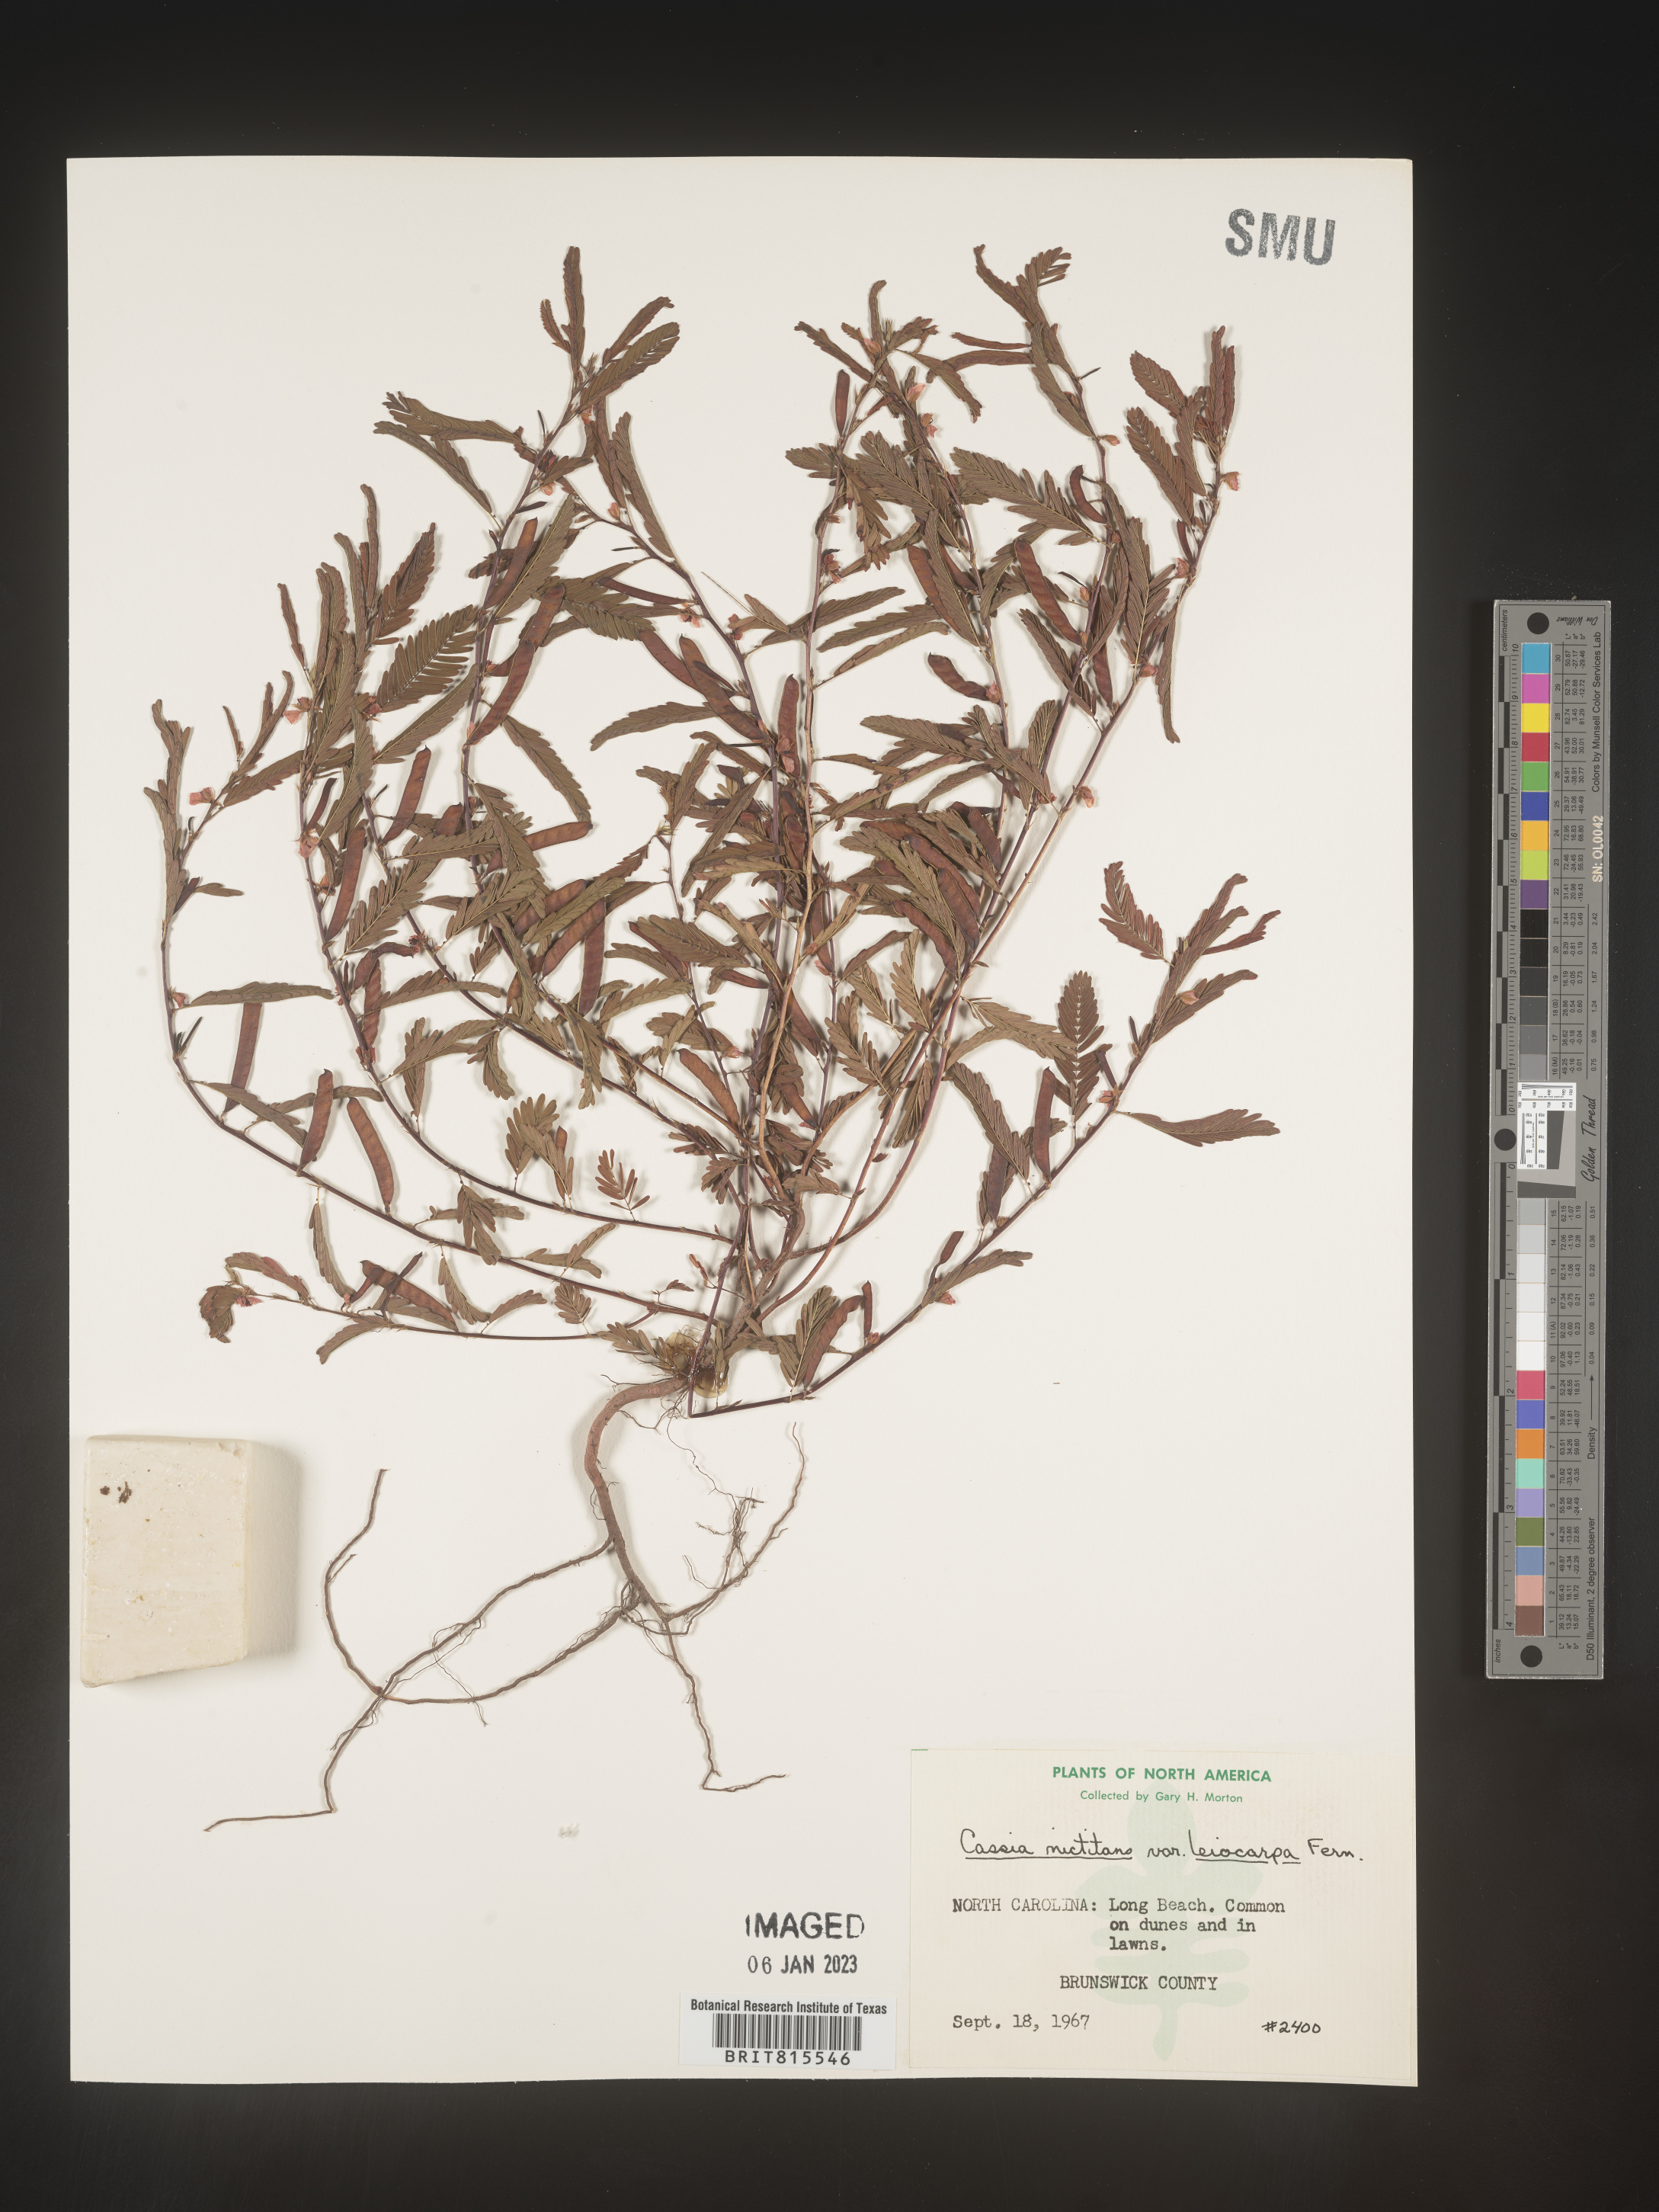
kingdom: Plantae
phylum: Tracheophyta
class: Magnoliopsida
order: Fabales
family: Fabaceae
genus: Chamaecrista
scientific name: Chamaecrista nictitans
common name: Sensitive cassia
